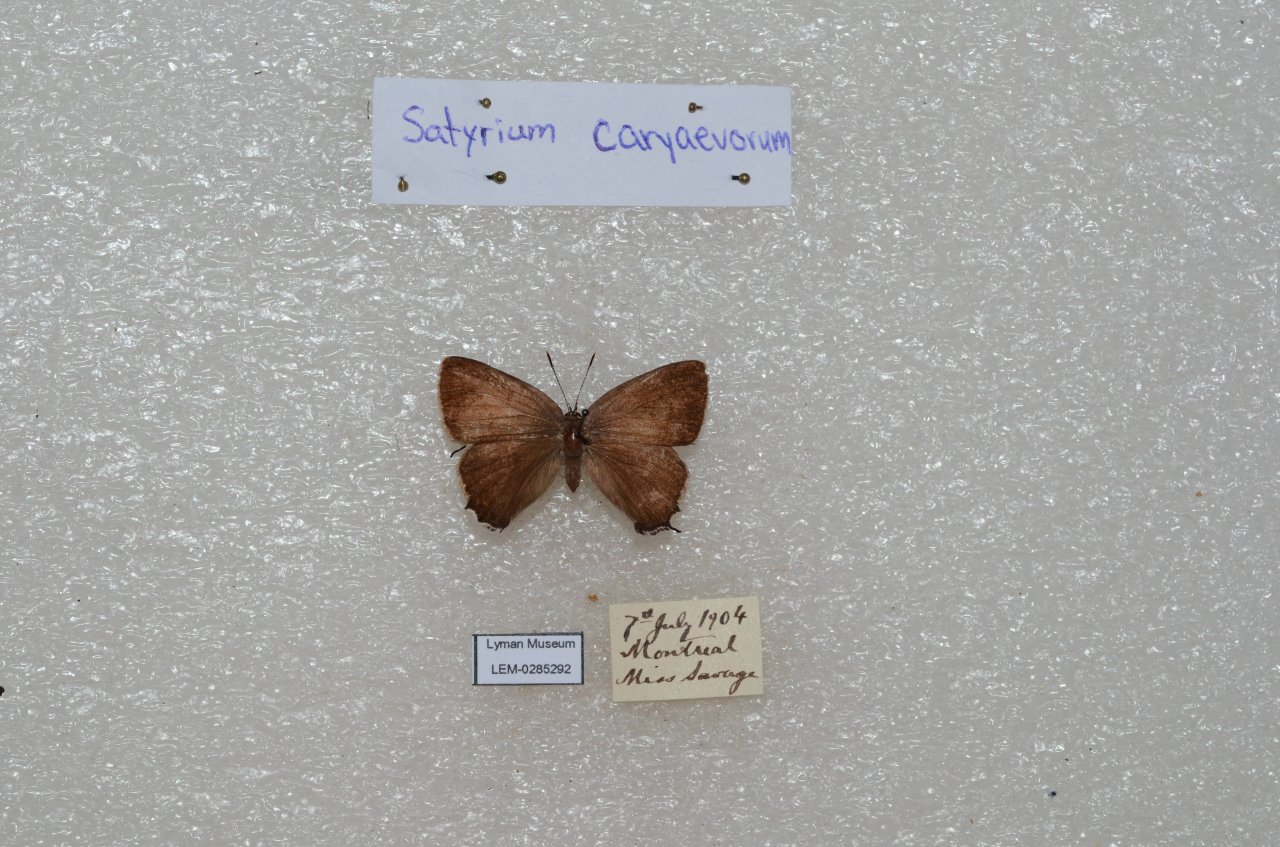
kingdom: Animalia
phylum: Arthropoda
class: Insecta
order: Lepidoptera
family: Lycaenidae
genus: Strymon
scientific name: Strymon caryaevorus
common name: Hickory Hairstreak
